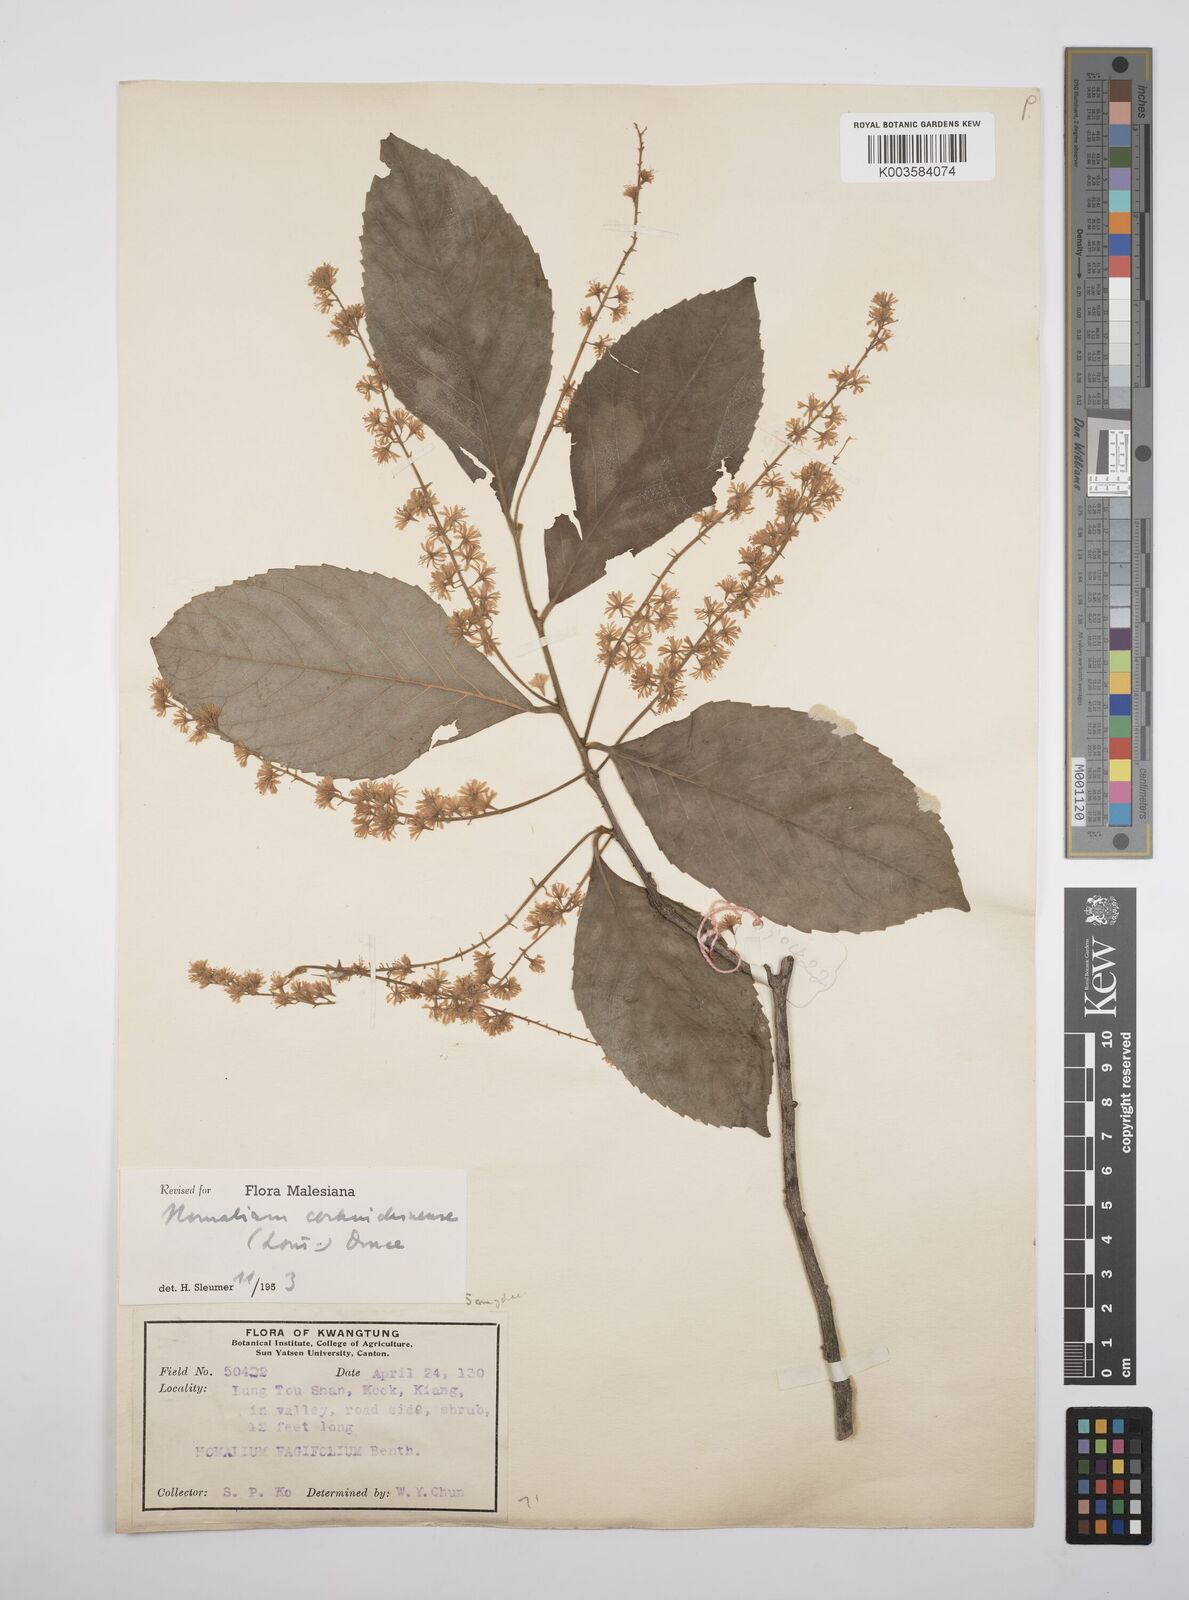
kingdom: Plantae
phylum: Tracheophyta
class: Magnoliopsida
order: Malpighiales
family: Salicaceae
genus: Homalium
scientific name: Homalium cochinchinensis
